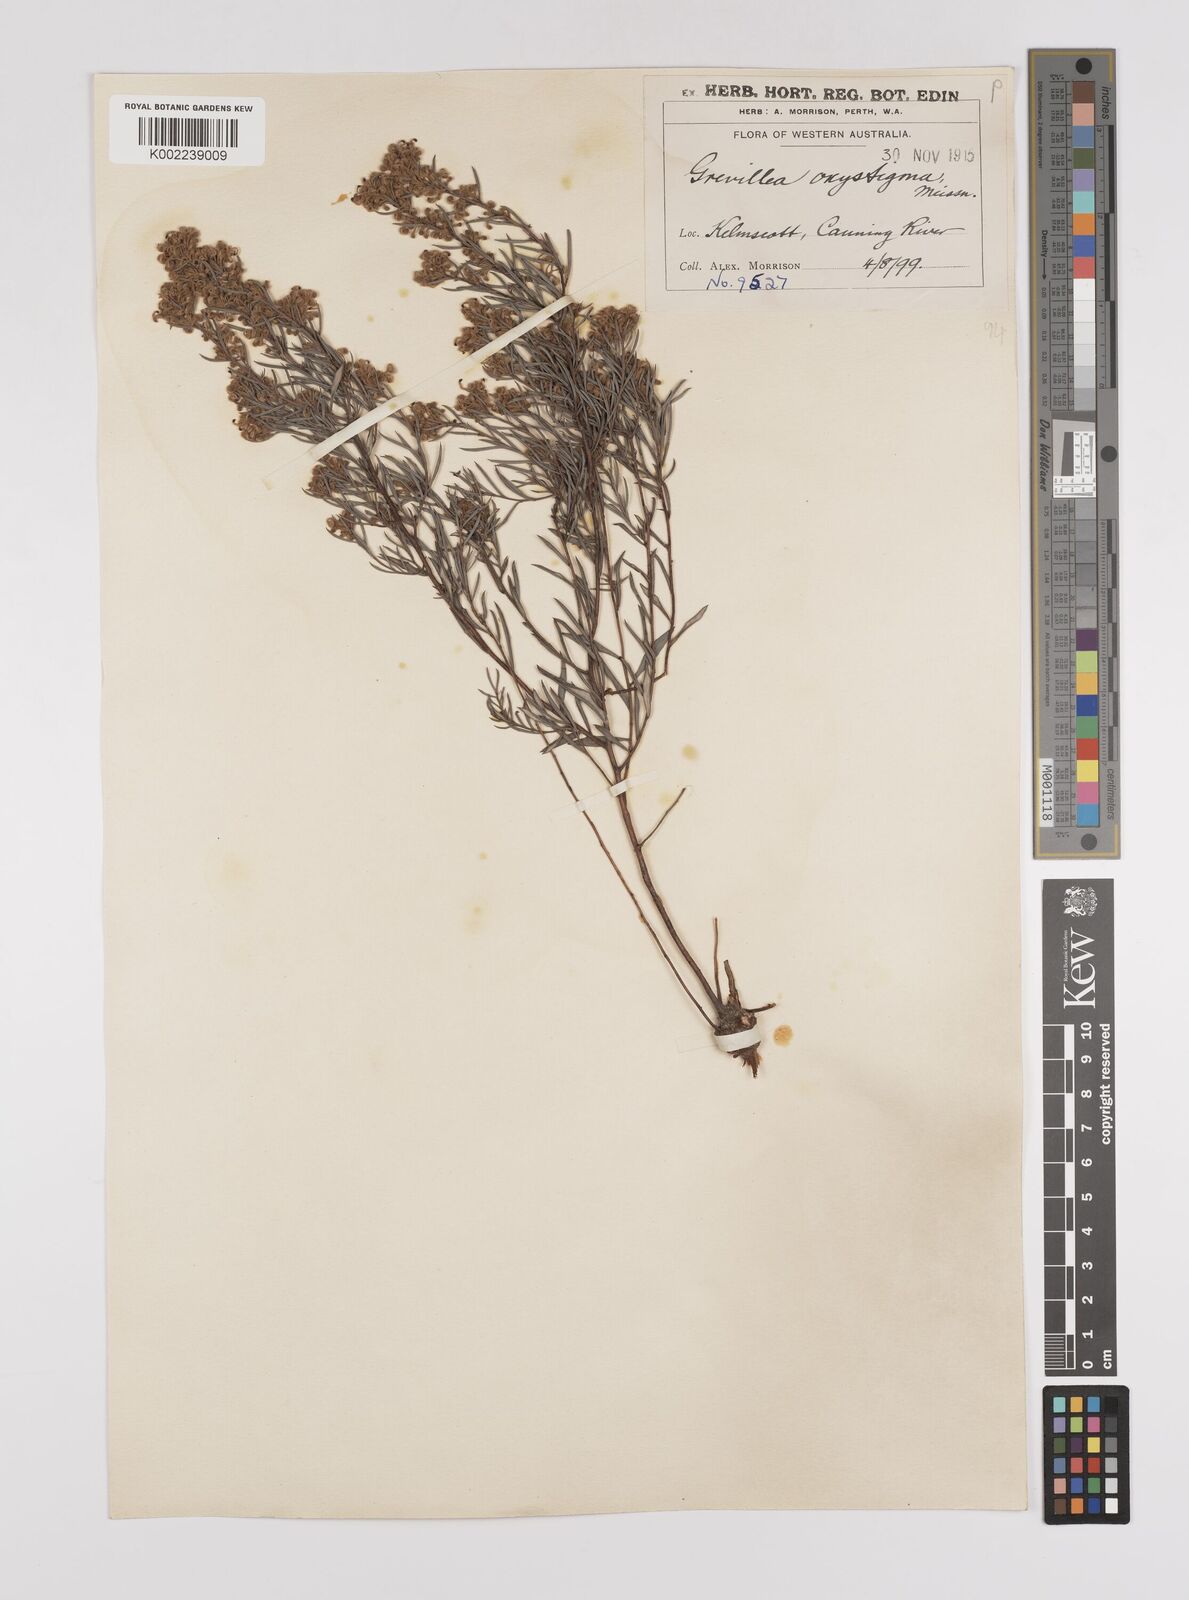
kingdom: Plantae
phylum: Tracheophyta
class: Magnoliopsida
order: Proteales
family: Proteaceae
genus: Grevillea
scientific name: Grevillea pilulifera
